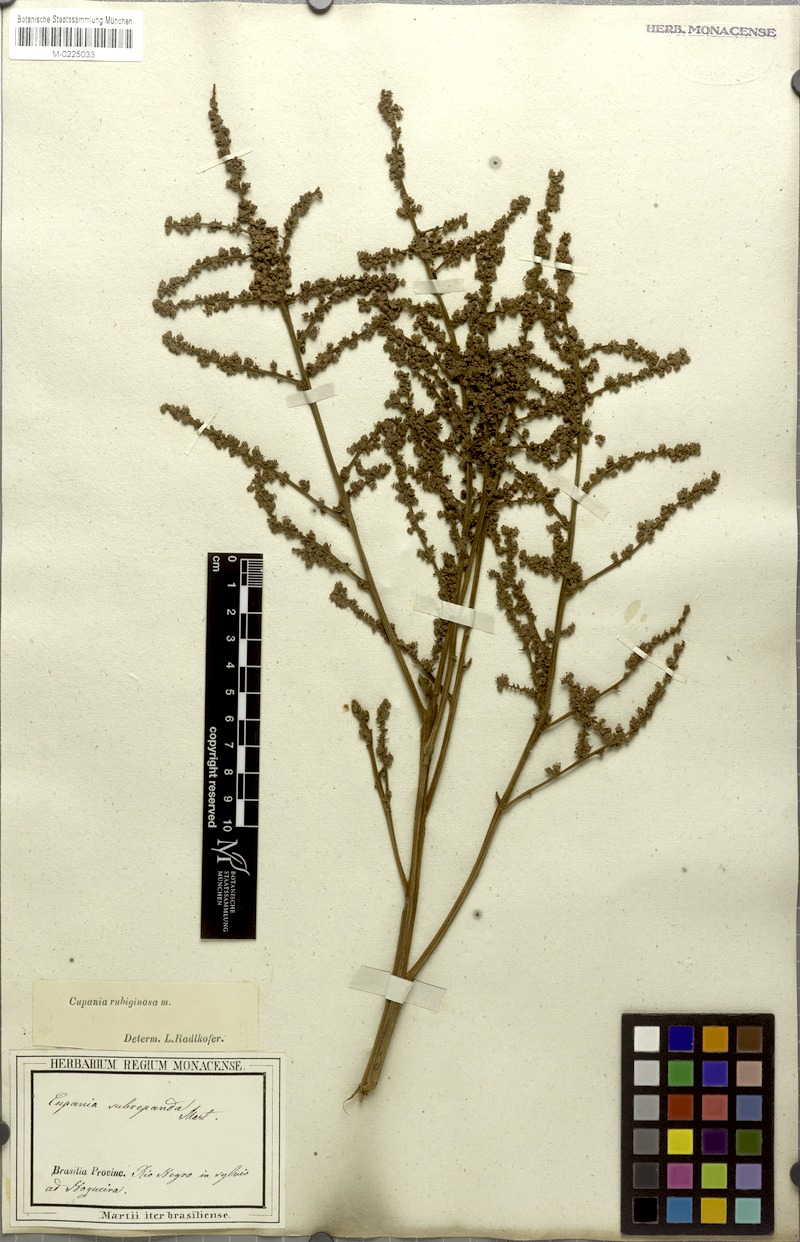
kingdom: Plantae
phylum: Tracheophyta
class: Magnoliopsida
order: Sapindales
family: Sapindaceae
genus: Cupania
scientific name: Cupania rubiginosa
